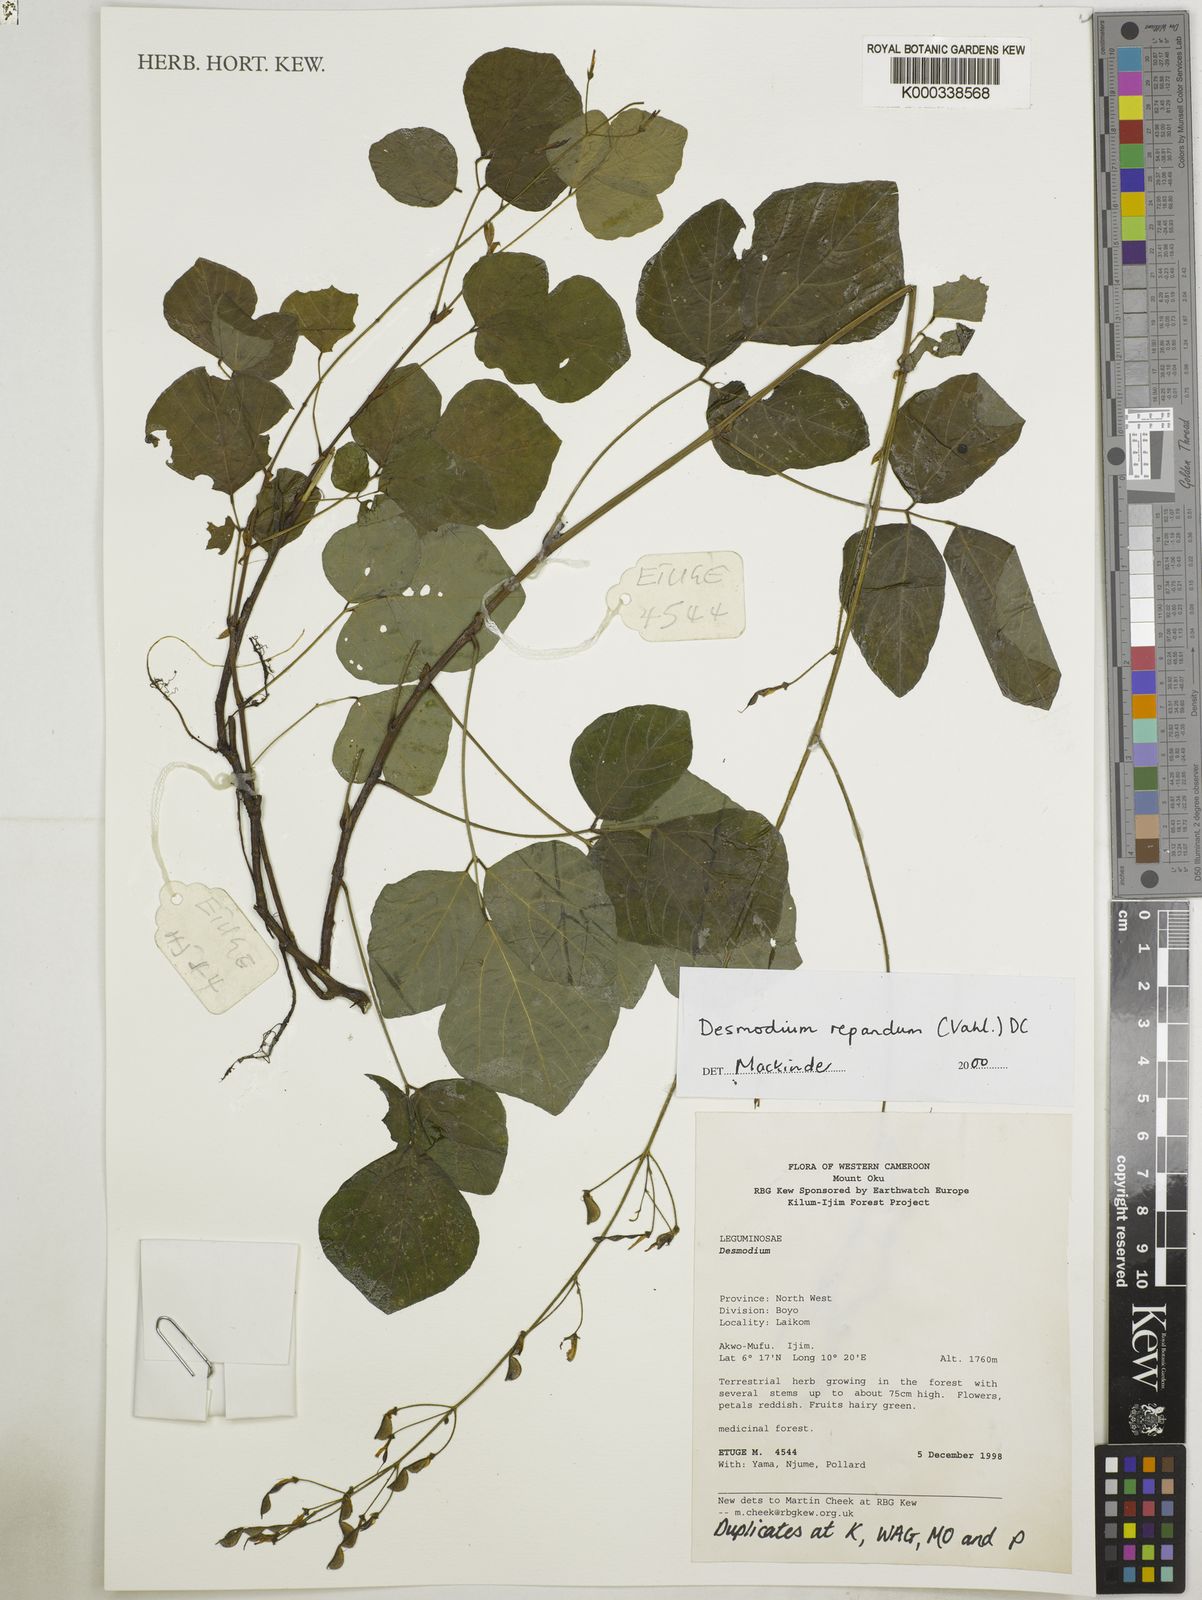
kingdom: Plantae
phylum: Tracheophyta
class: Magnoliopsida
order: Fabales
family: Fabaceae
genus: Desmodium
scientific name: Desmodium
